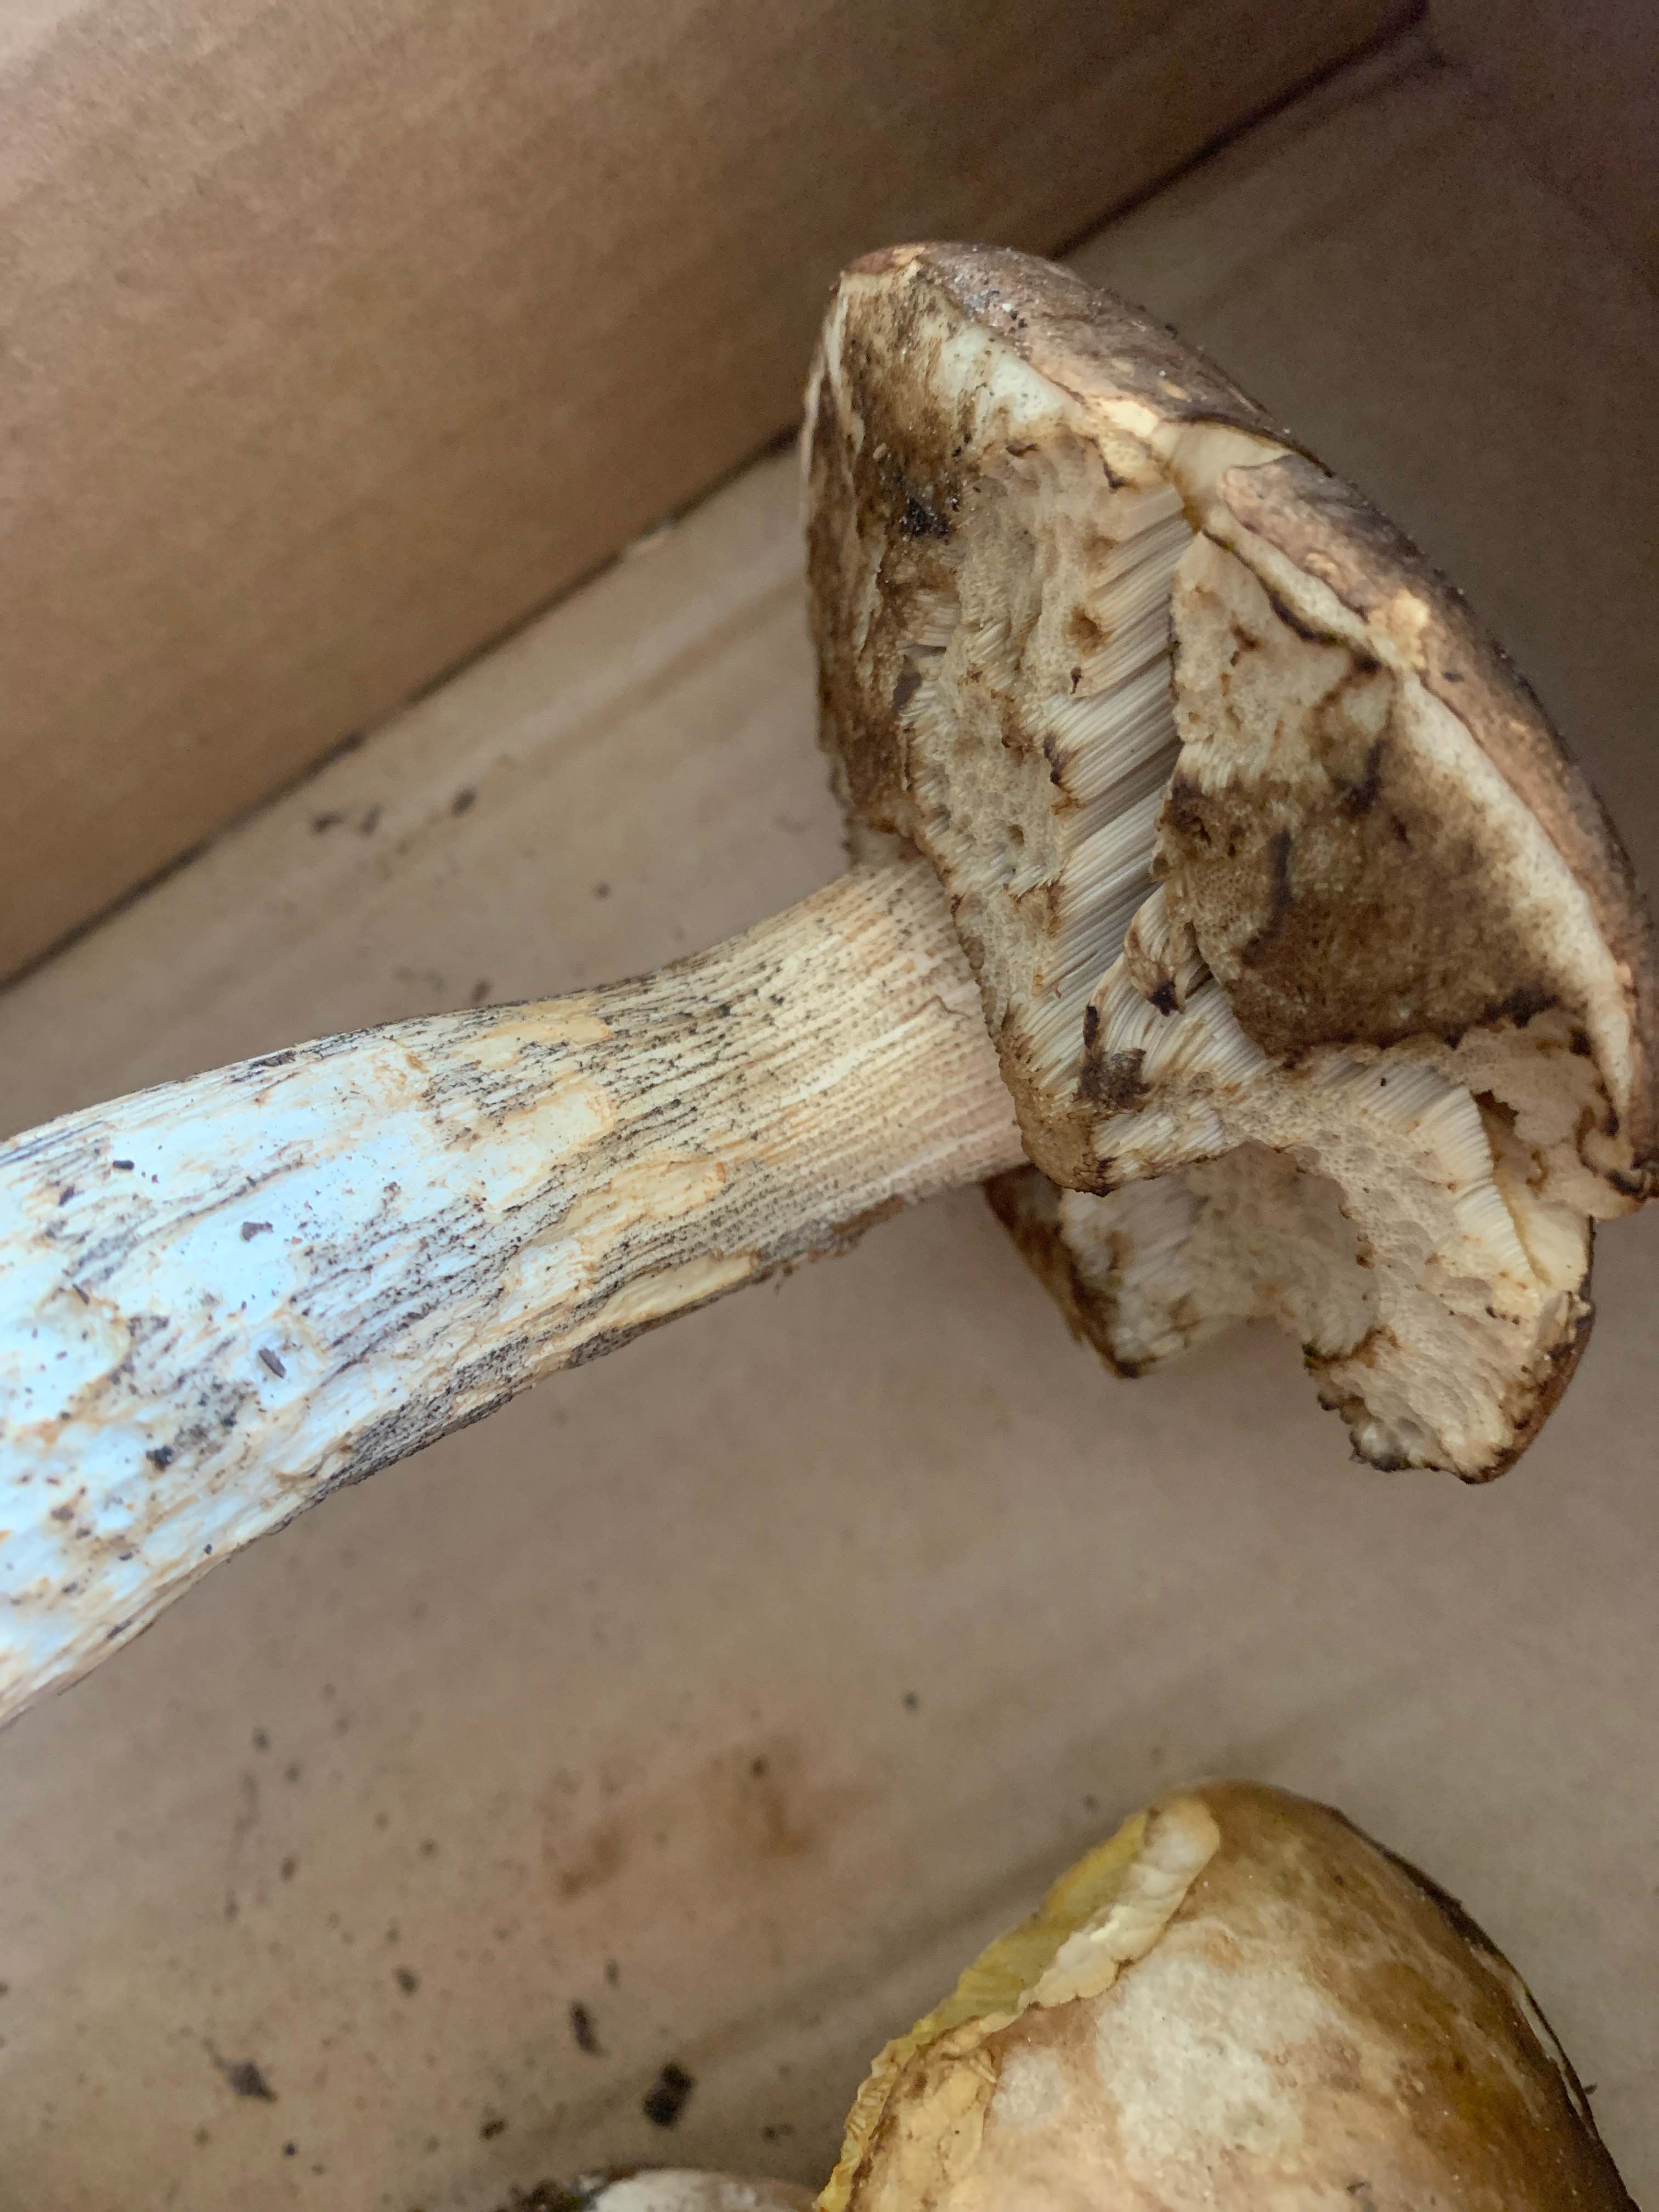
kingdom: Fungi
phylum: Basidiomycota
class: Agaricomycetes
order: Boletales
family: Boletaceae
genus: Boletus
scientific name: Boletus edulis
